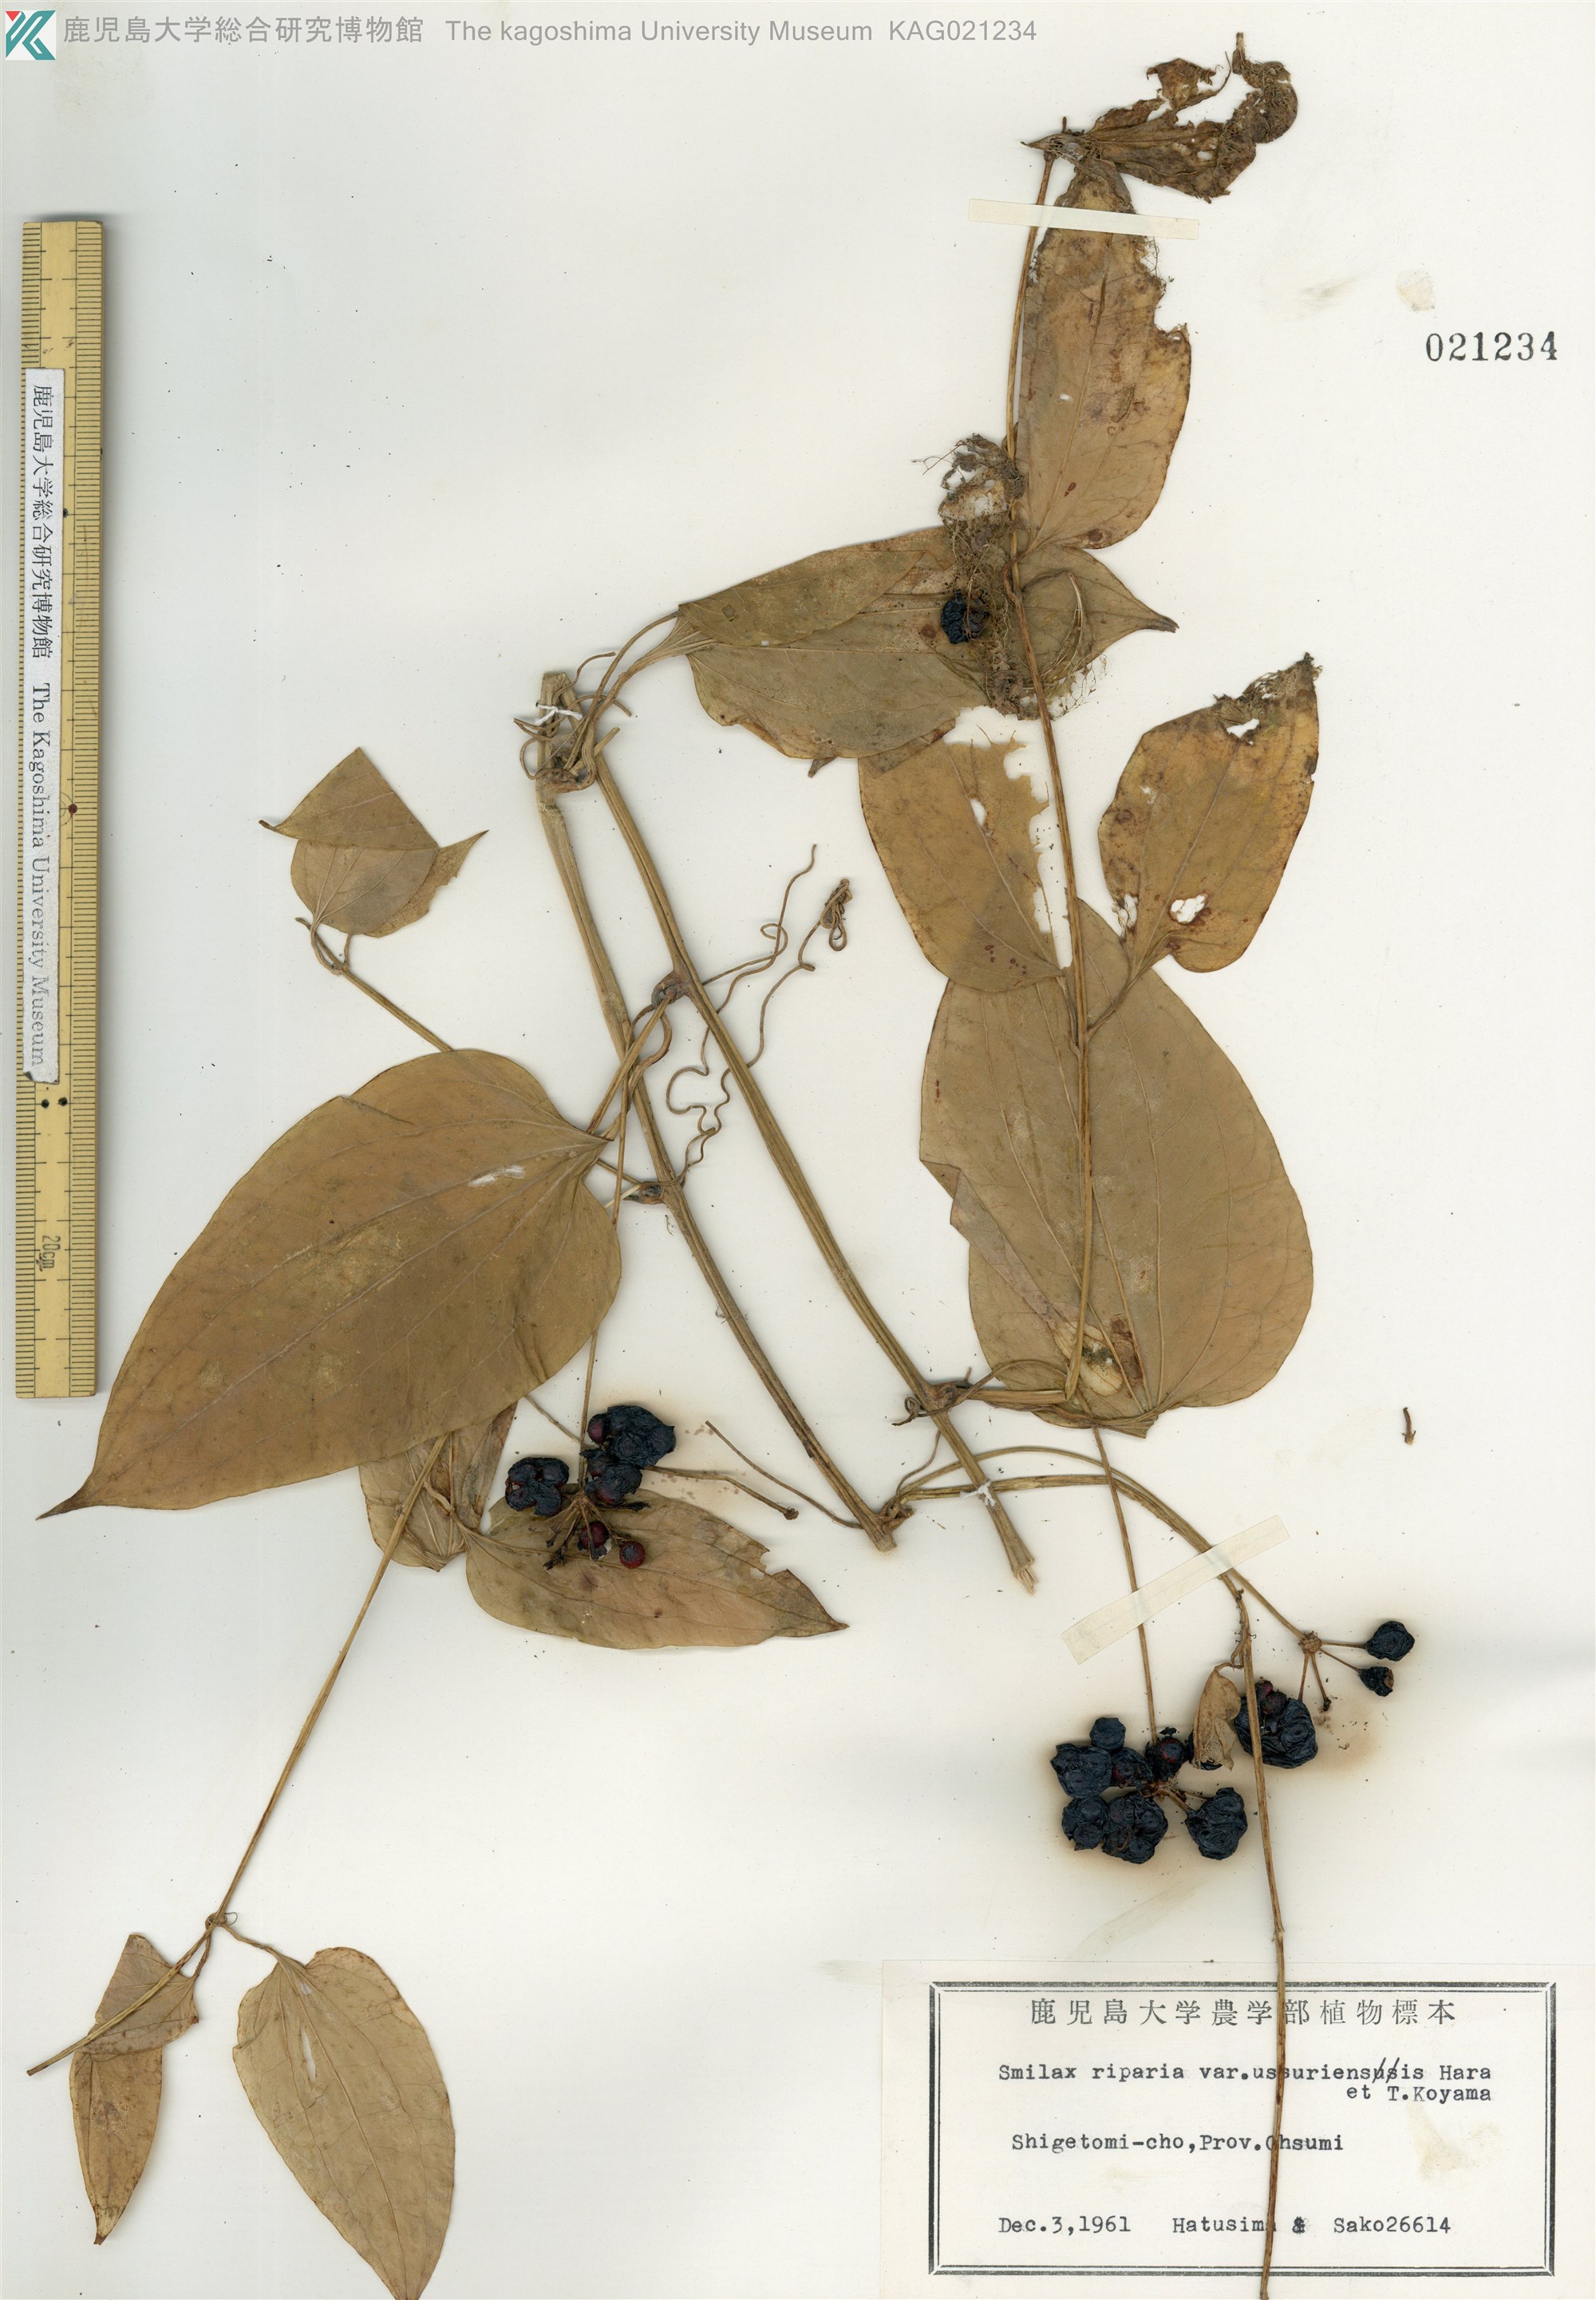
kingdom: Plantae
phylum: Tracheophyta
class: Liliopsida
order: Liliales
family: Smilacaceae
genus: Smilax
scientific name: Smilax riparia
